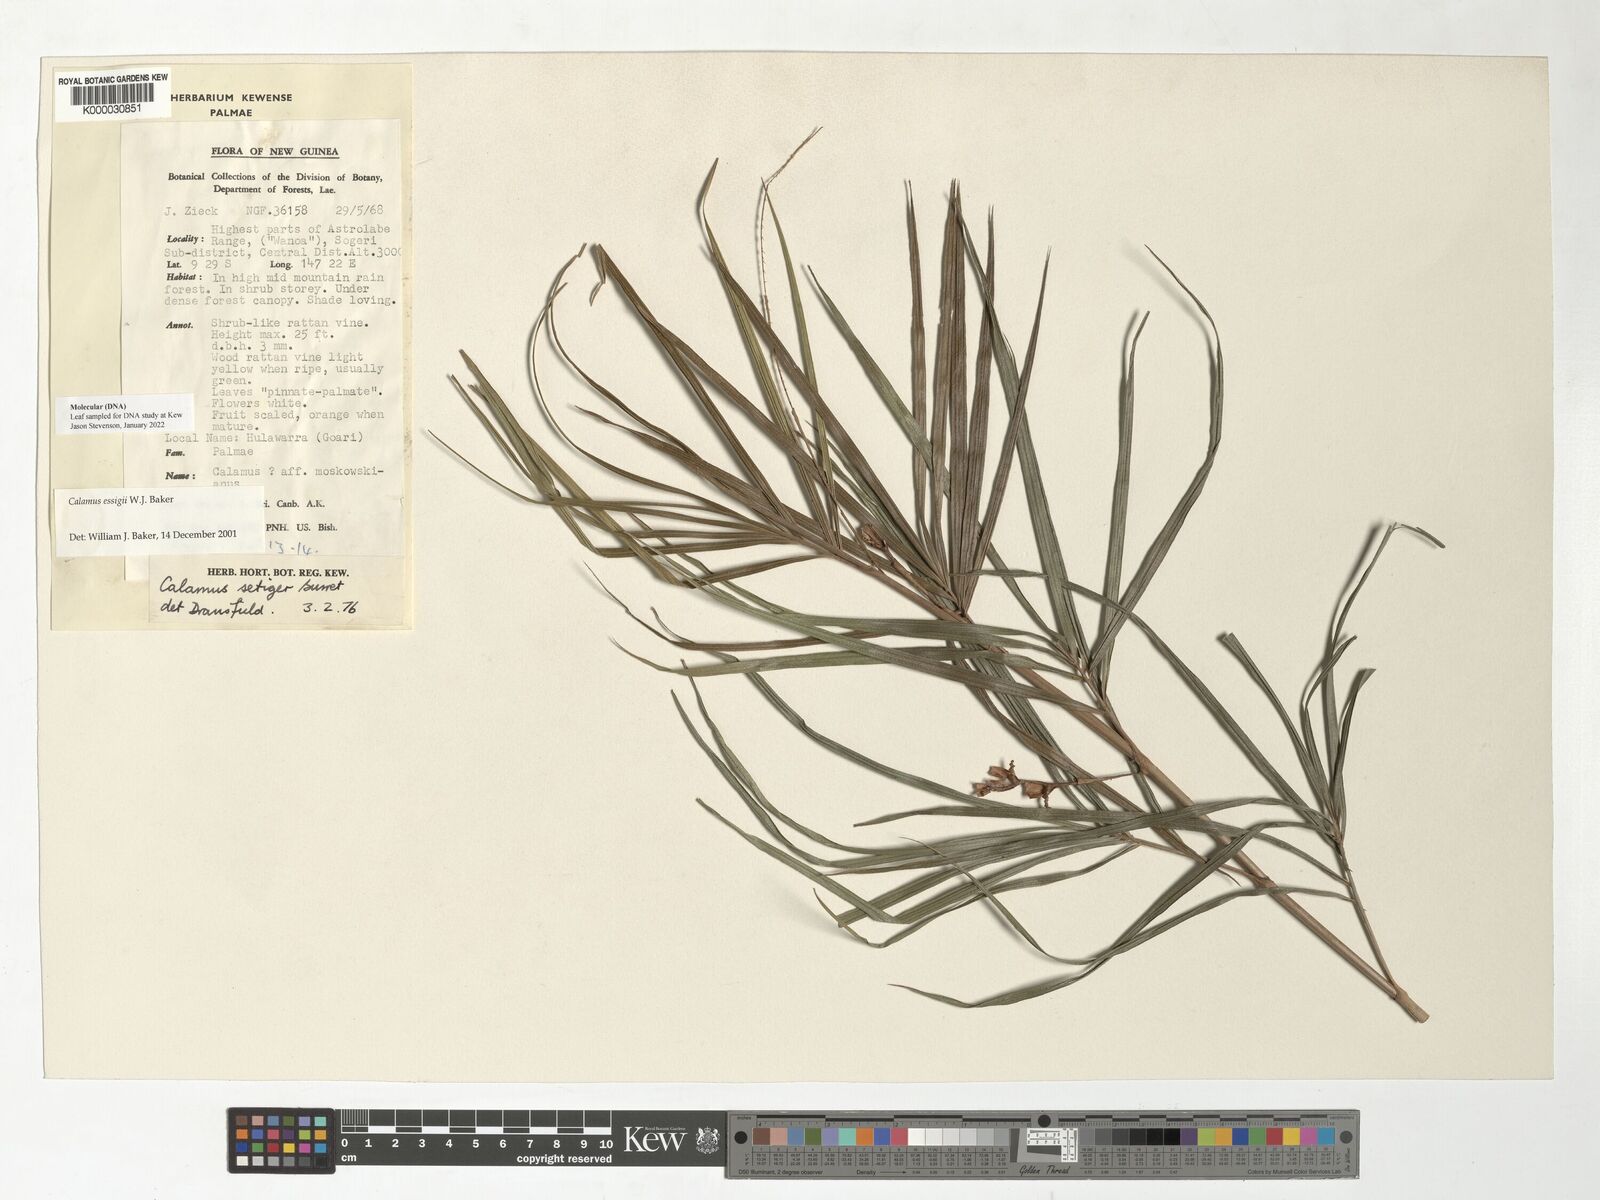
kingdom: Plantae
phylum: Tracheophyta
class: Liliopsida
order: Arecales
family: Arecaceae
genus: Calamus
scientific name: Calamus essigii
